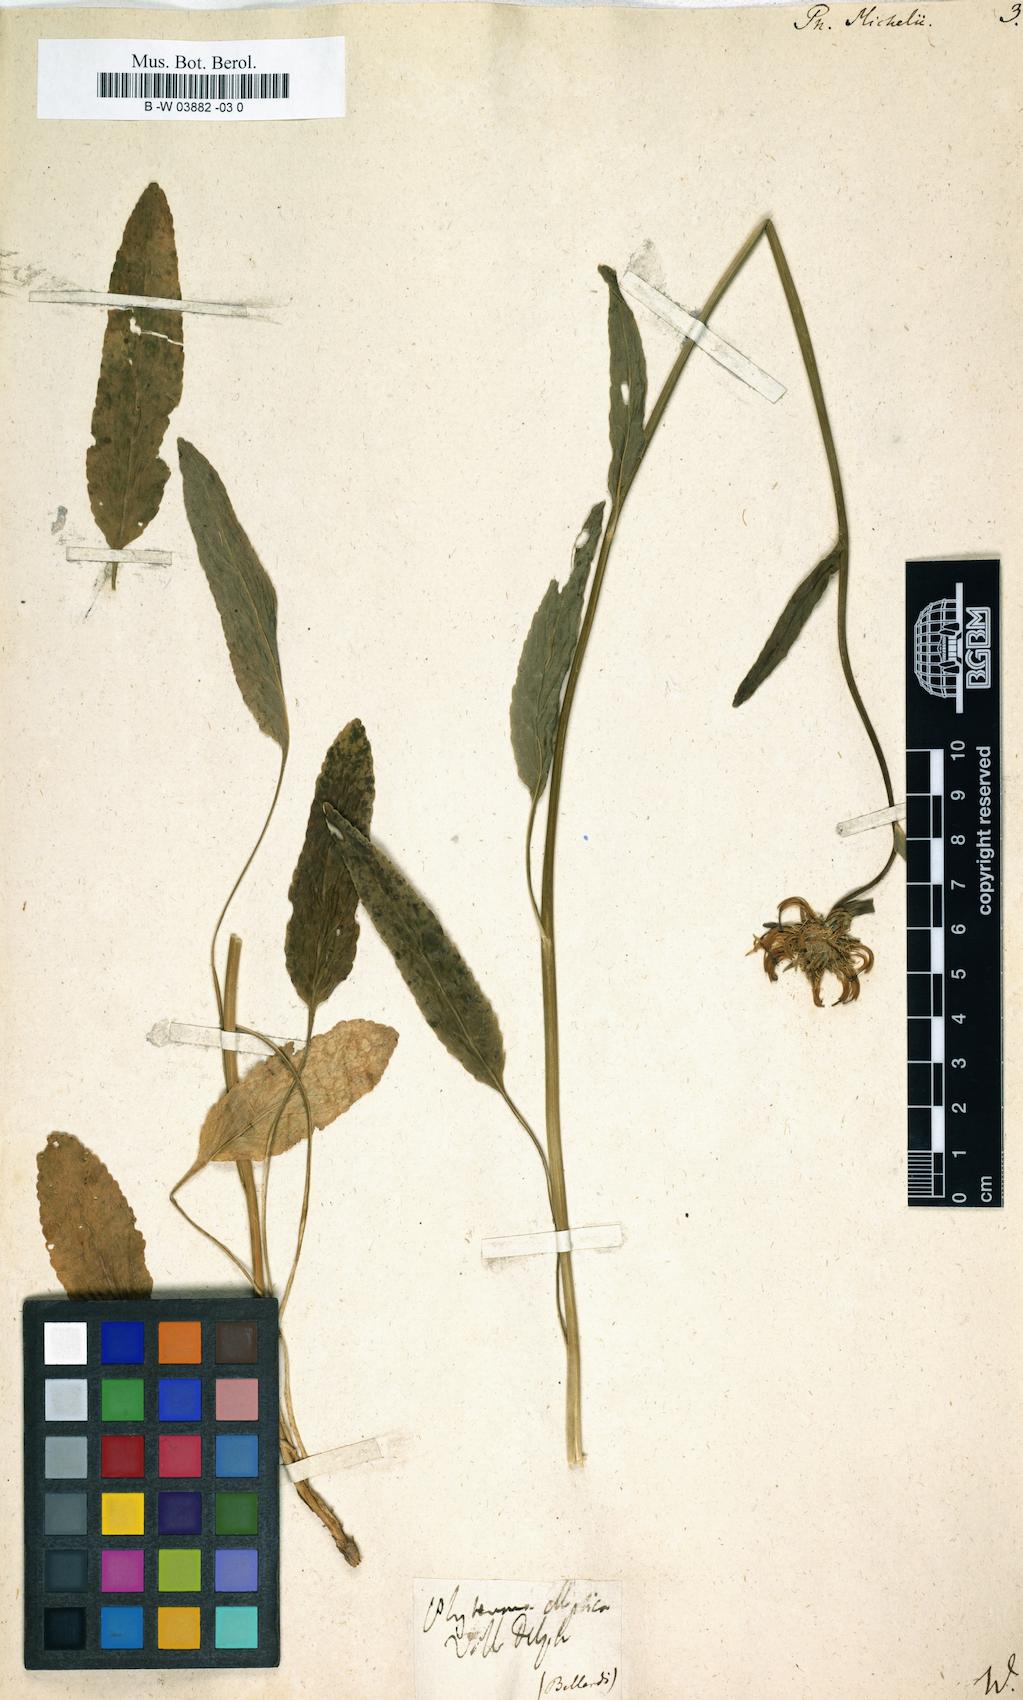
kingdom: Plantae
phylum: Tracheophyta
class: Magnoliopsida
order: Asterales
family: Campanulaceae
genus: Phyteuma
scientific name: Phyteuma michelii
